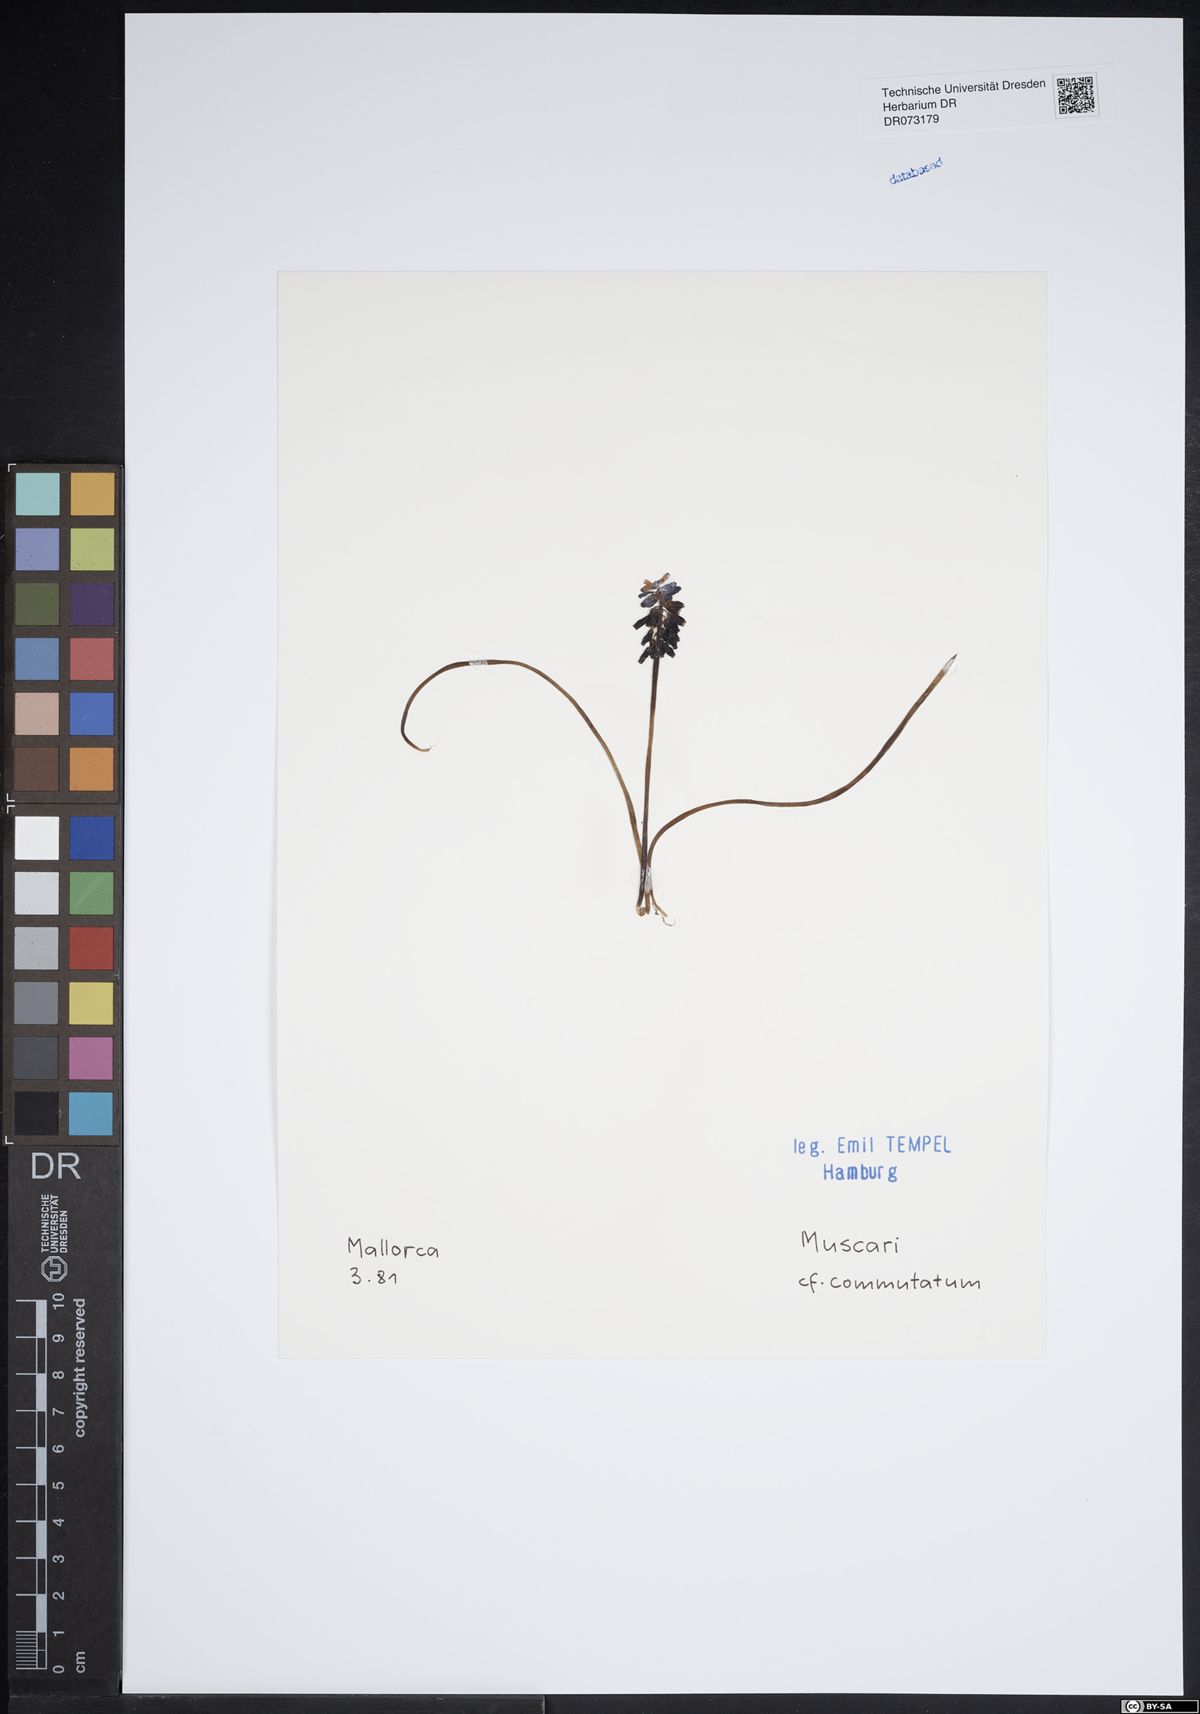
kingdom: Plantae
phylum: Tracheophyta
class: Liliopsida
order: Asparagales
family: Asparagaceae
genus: Muscari
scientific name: Muscari commutatum
